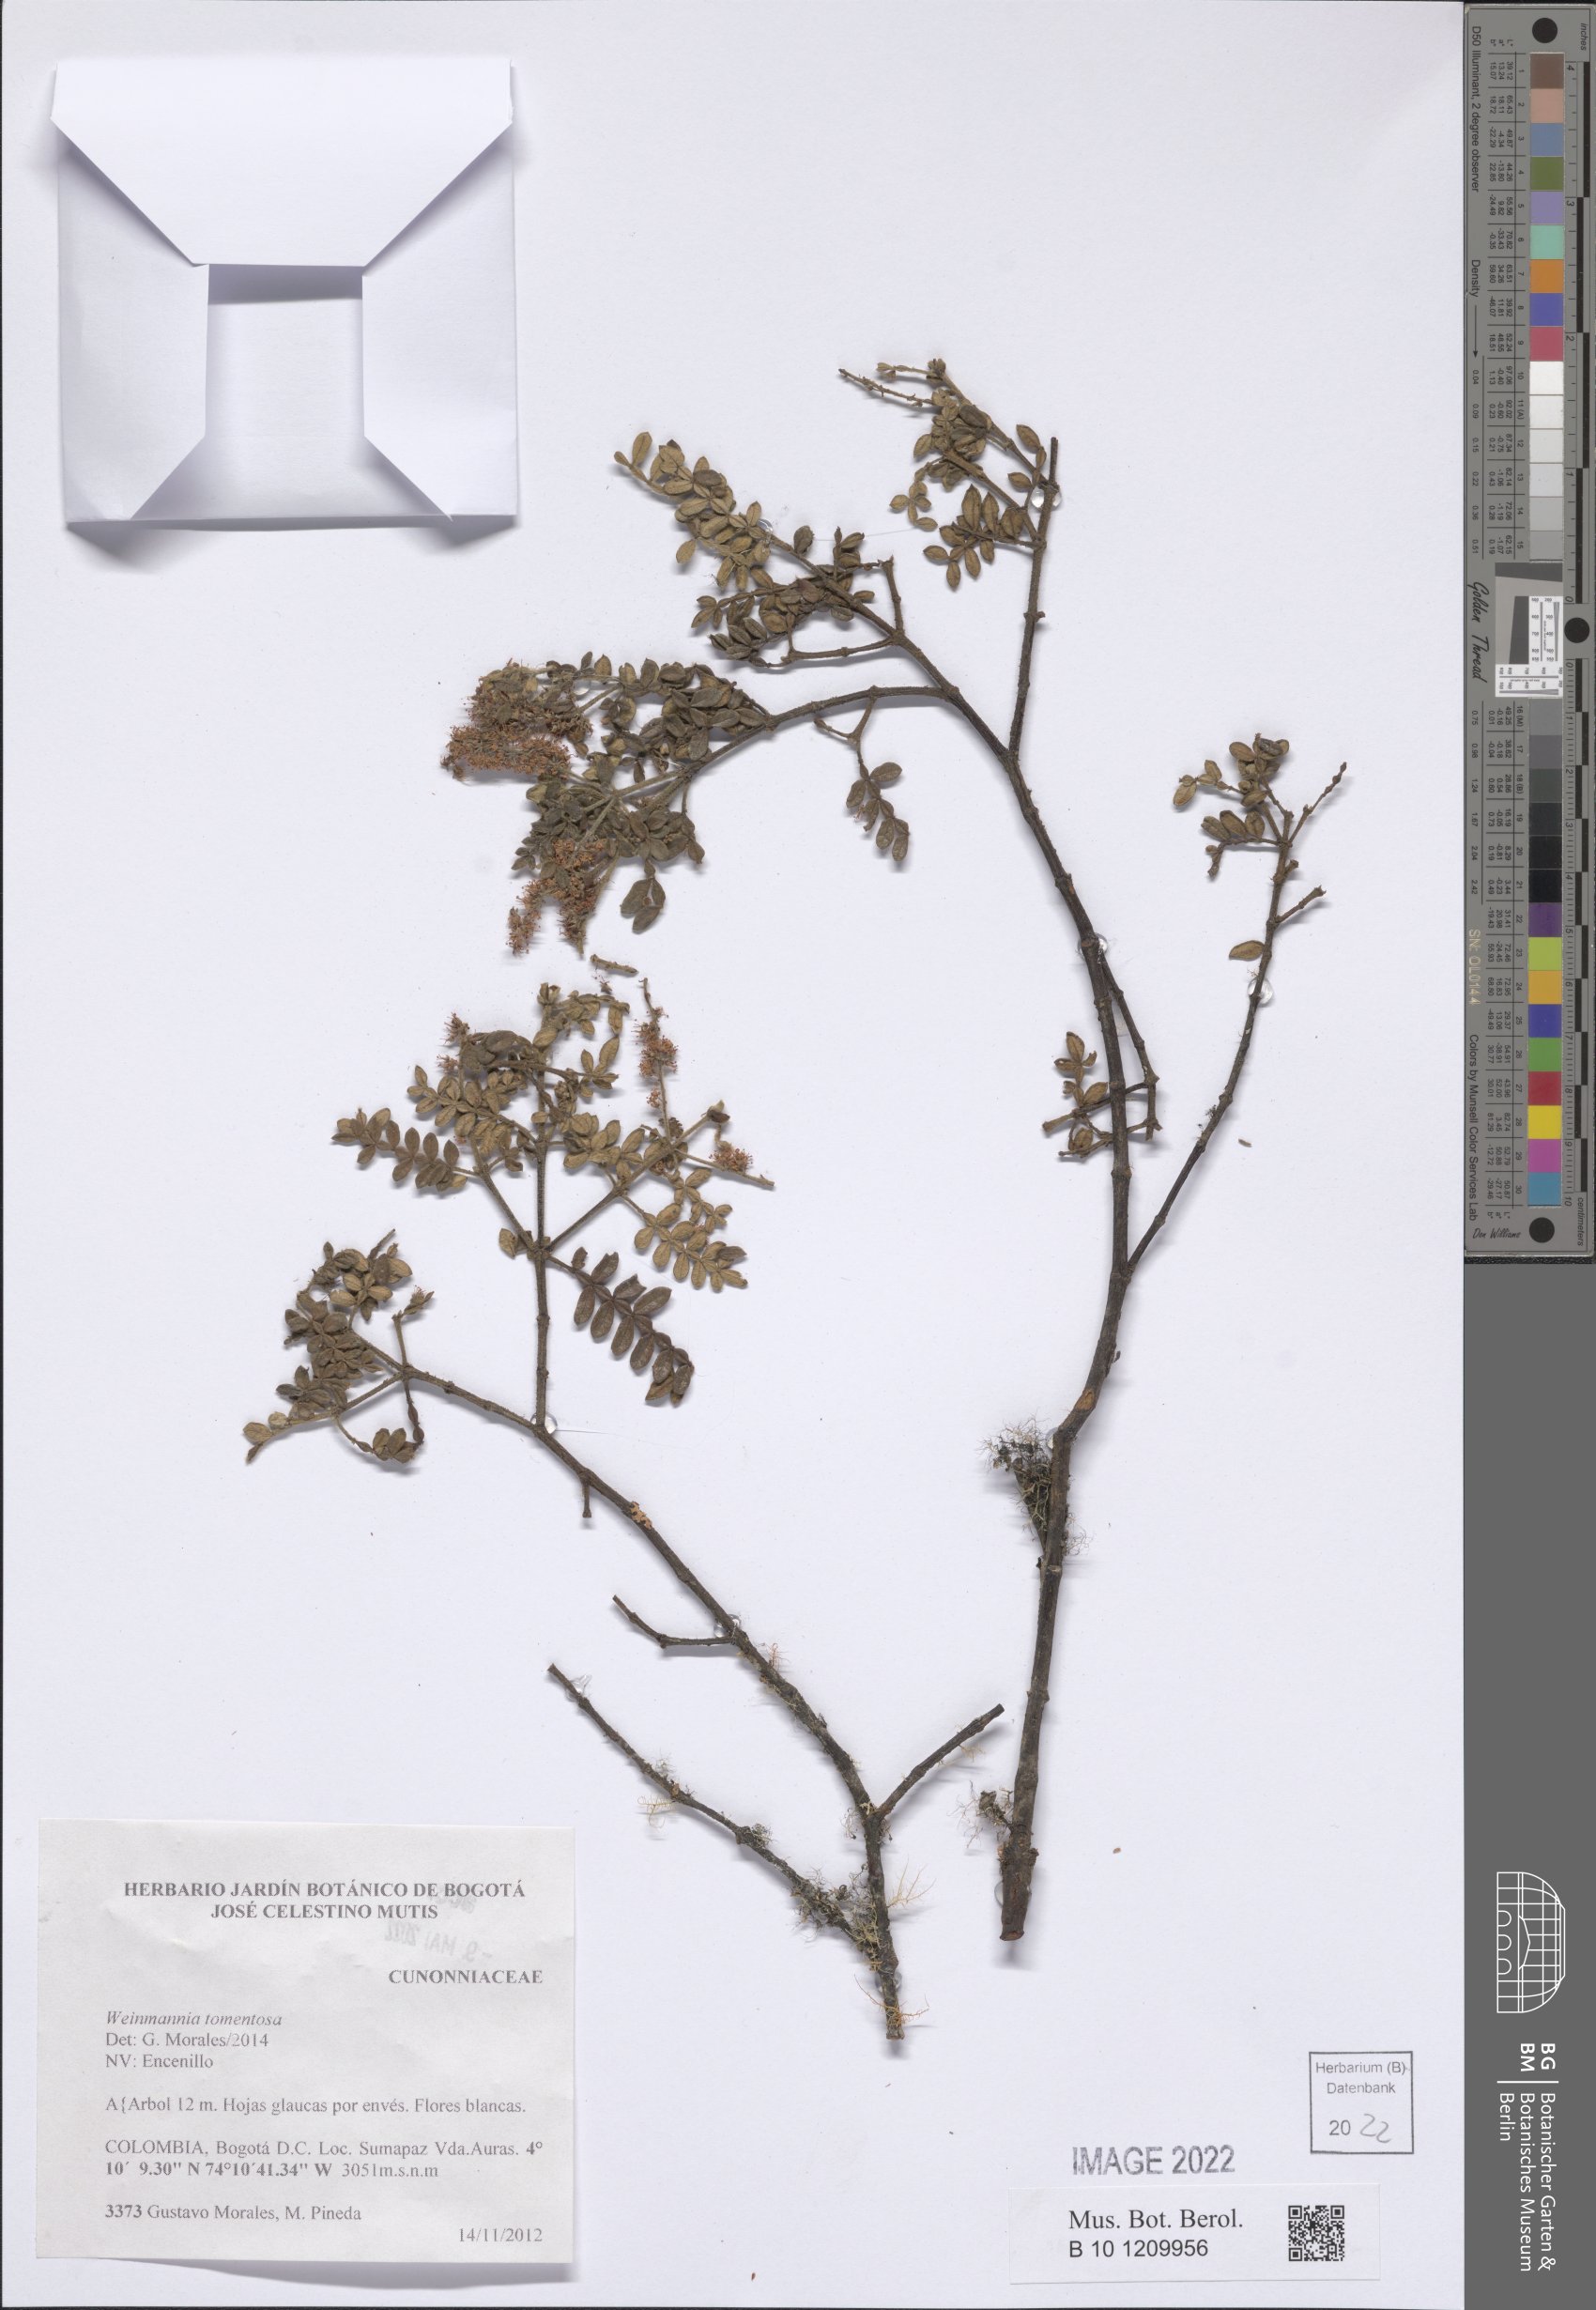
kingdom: Plantae
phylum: Tracheophyta
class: Magnoliopsida
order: Oxalidales
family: Cunoniaceae
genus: Weinmannia
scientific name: Weinmannia tomentosa
